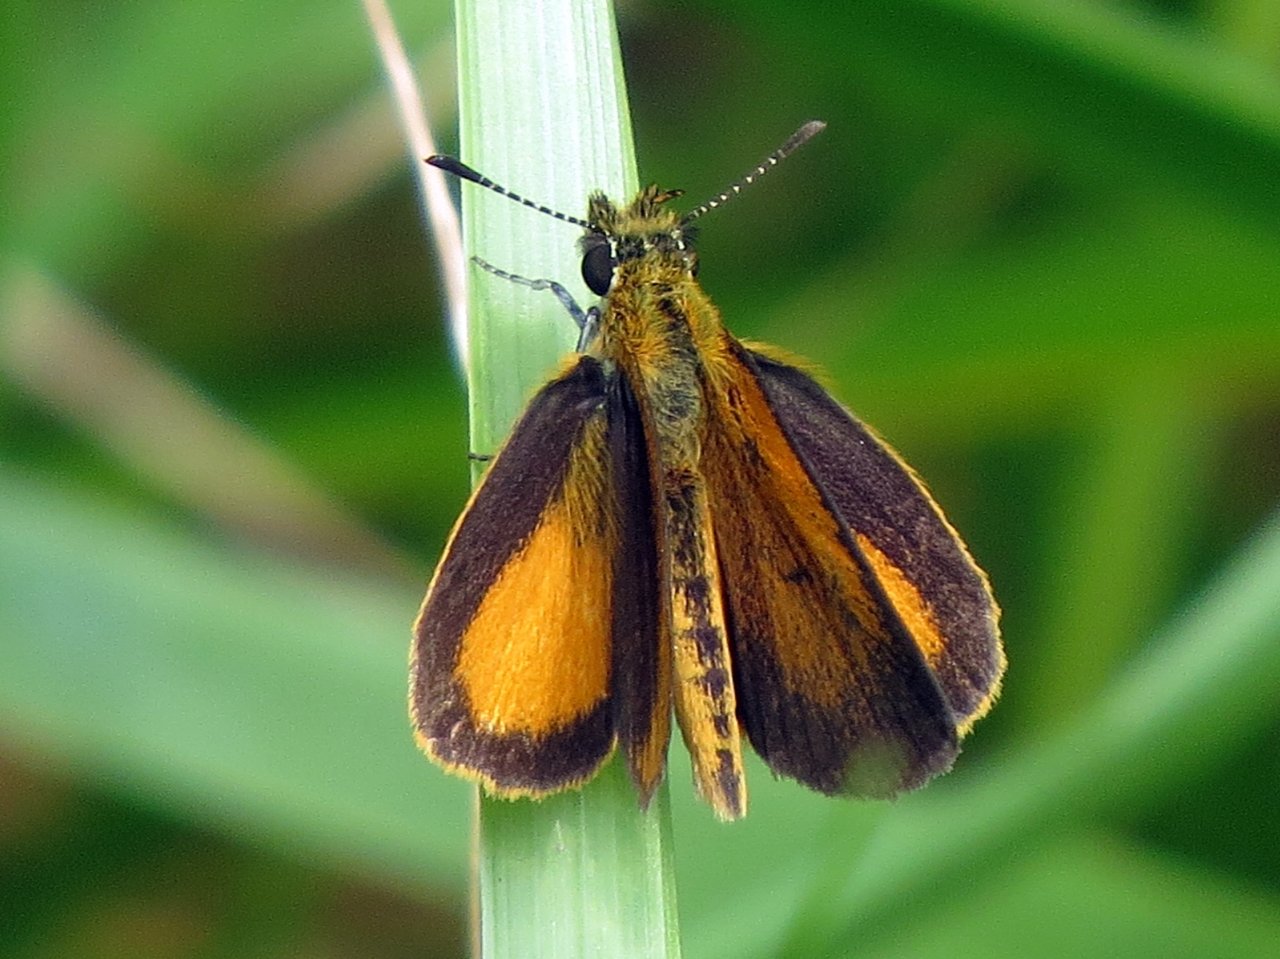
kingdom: Animalia
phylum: Arthropoda
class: Insecta
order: Lepidoptera
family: Hesperiidae
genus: Ancyloxypha
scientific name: Ancyloxypha numitor
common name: Least Skipper
